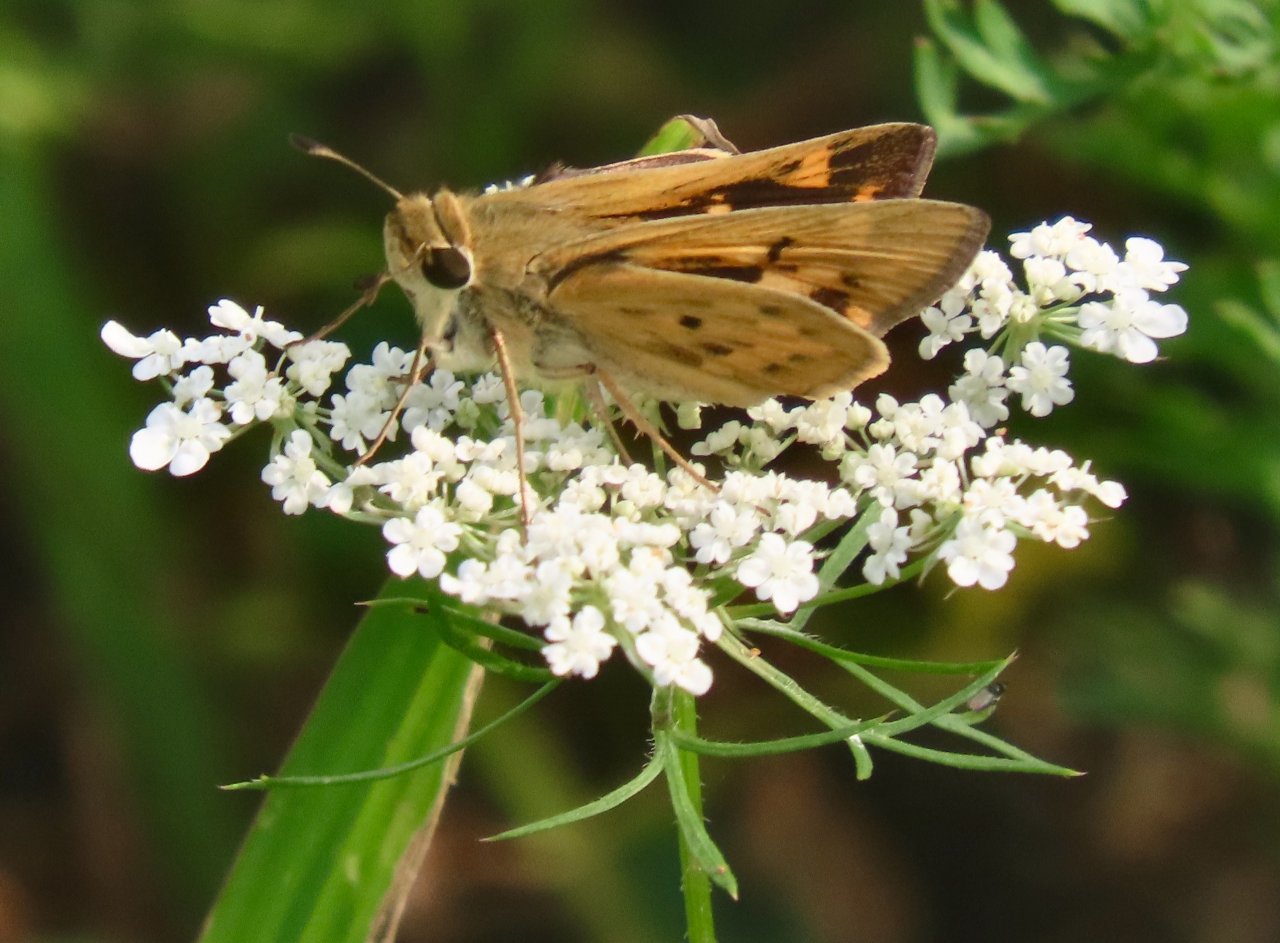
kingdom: Animalia
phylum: Arthropoda
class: Insecta
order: Lepidoptera
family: Hesperiidae
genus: Hylephila
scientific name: Hylephila phyleus
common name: Fiery Skipper
